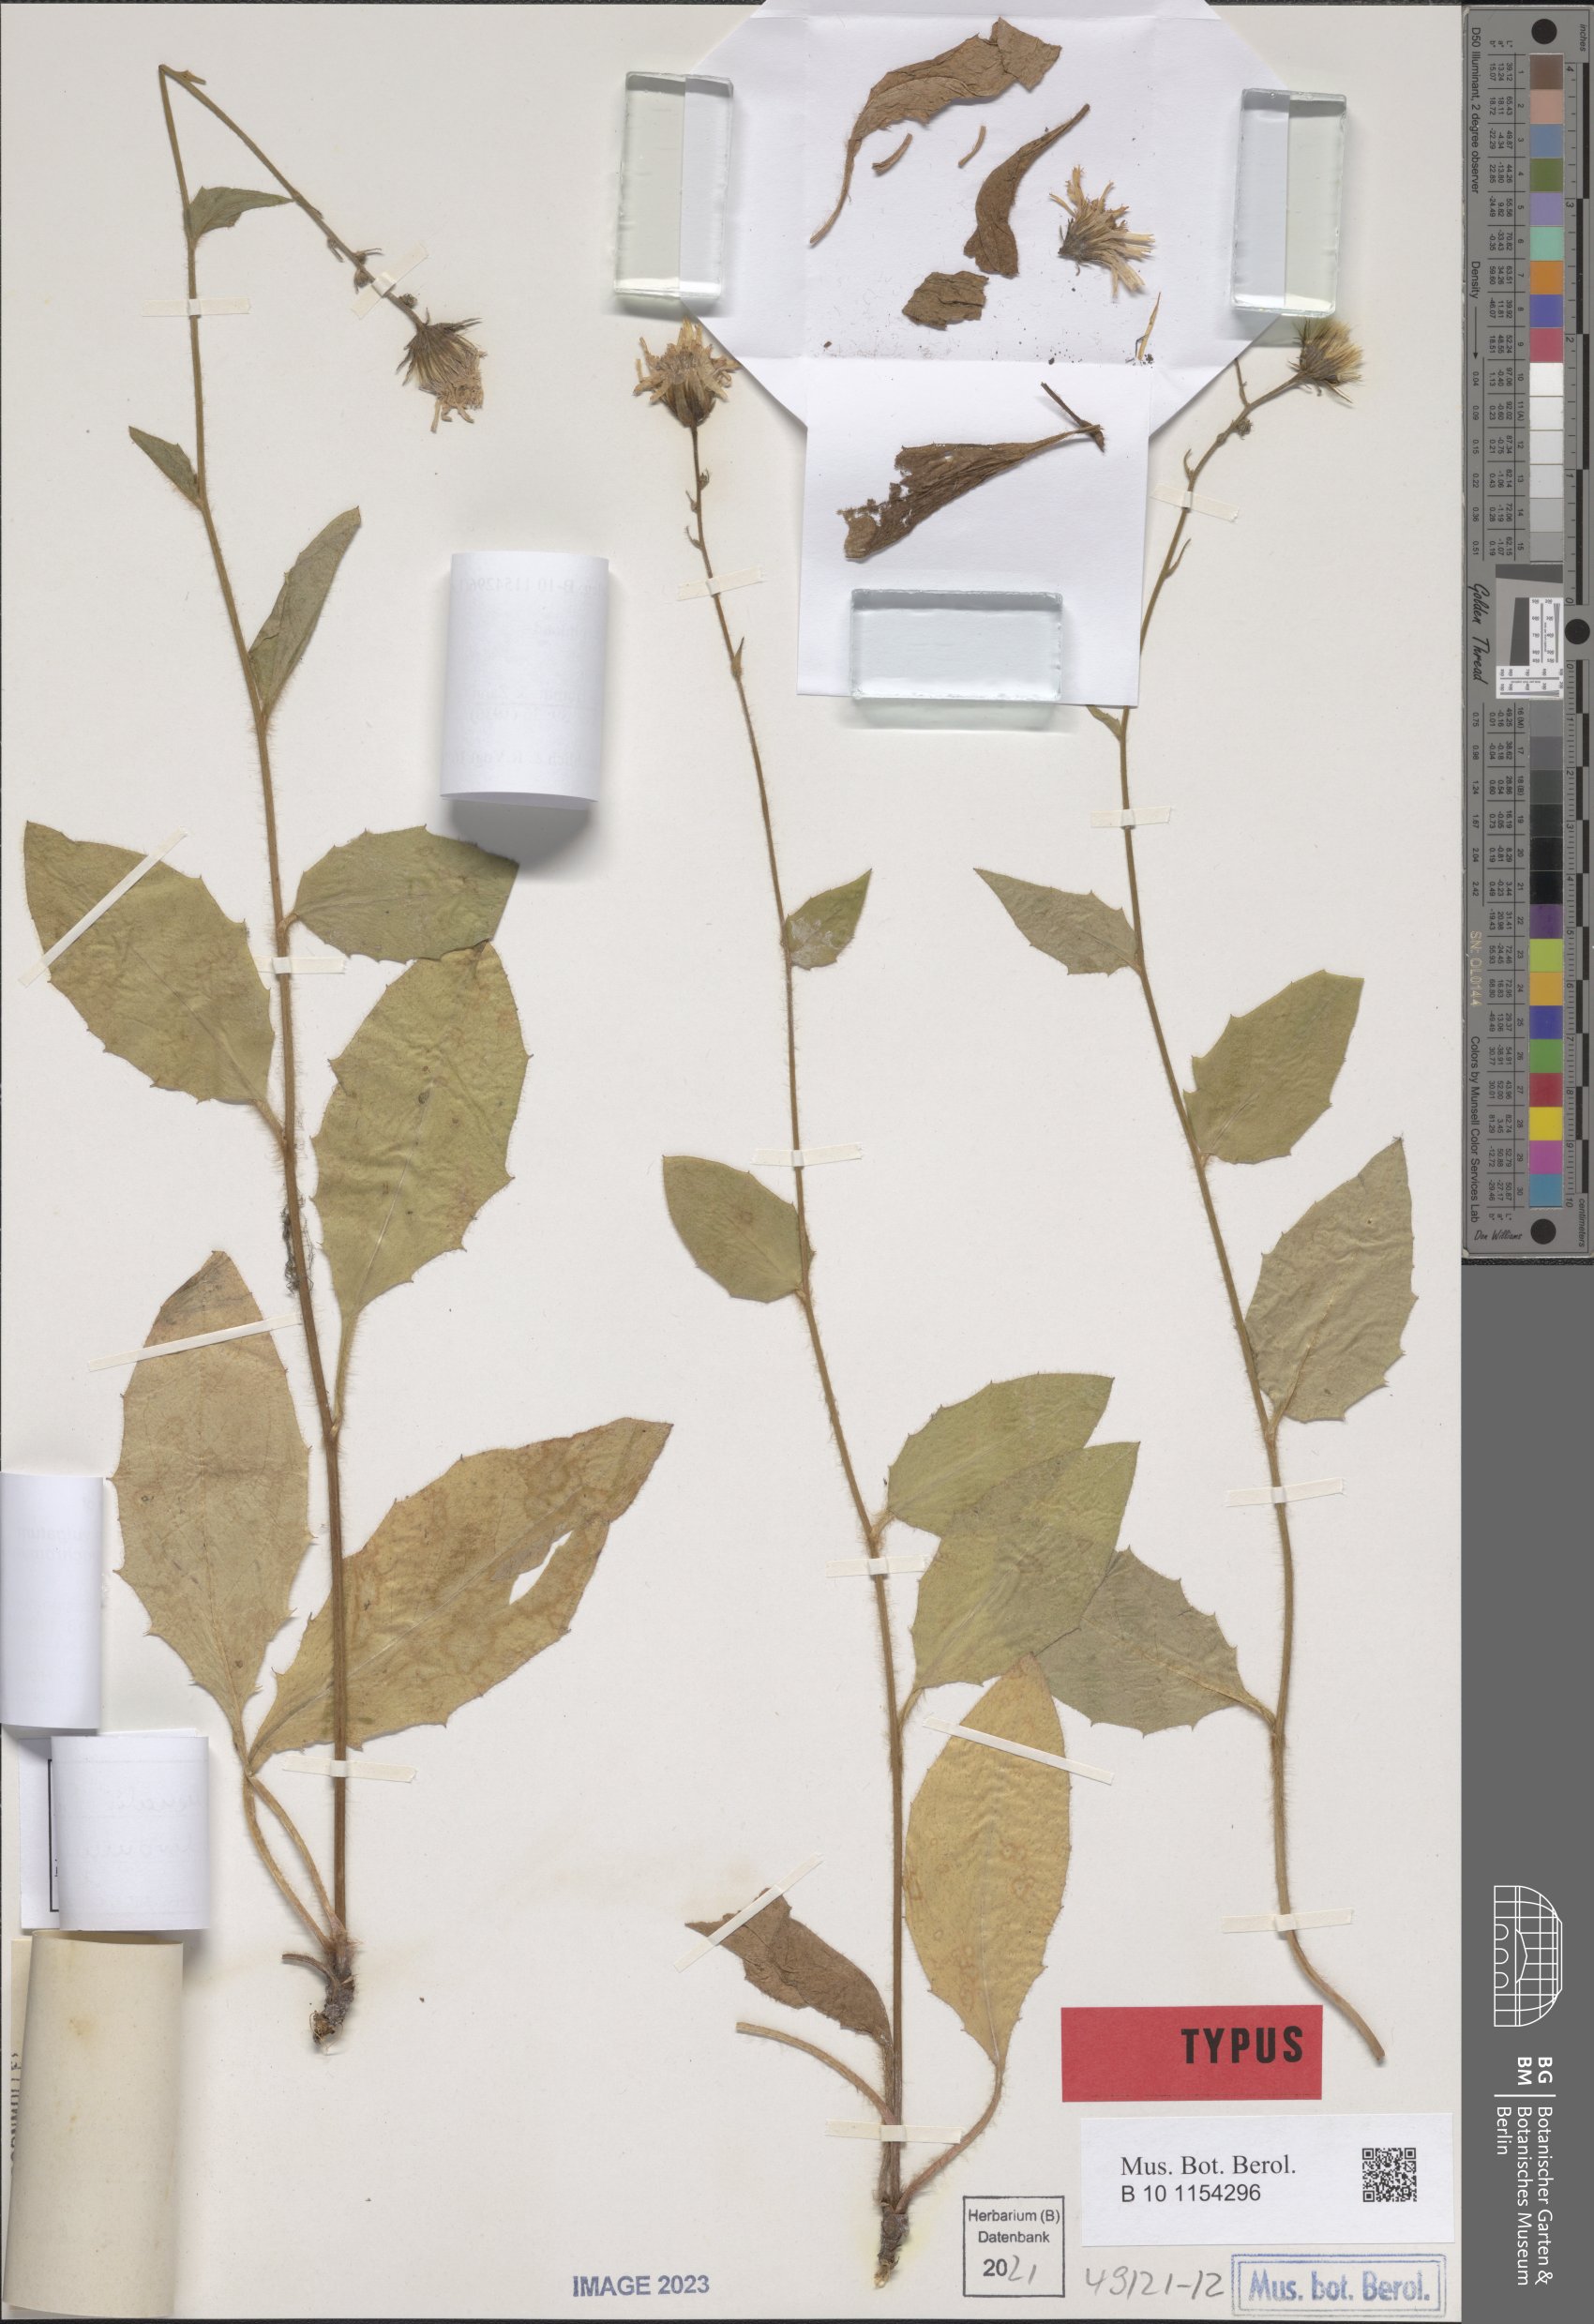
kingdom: Plantae
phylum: Tracheophyta
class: Magnoliopsida
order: Asterales
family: Asteraceae
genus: Hieracium
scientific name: Hieracium lachenalii
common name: Common hawkweed
